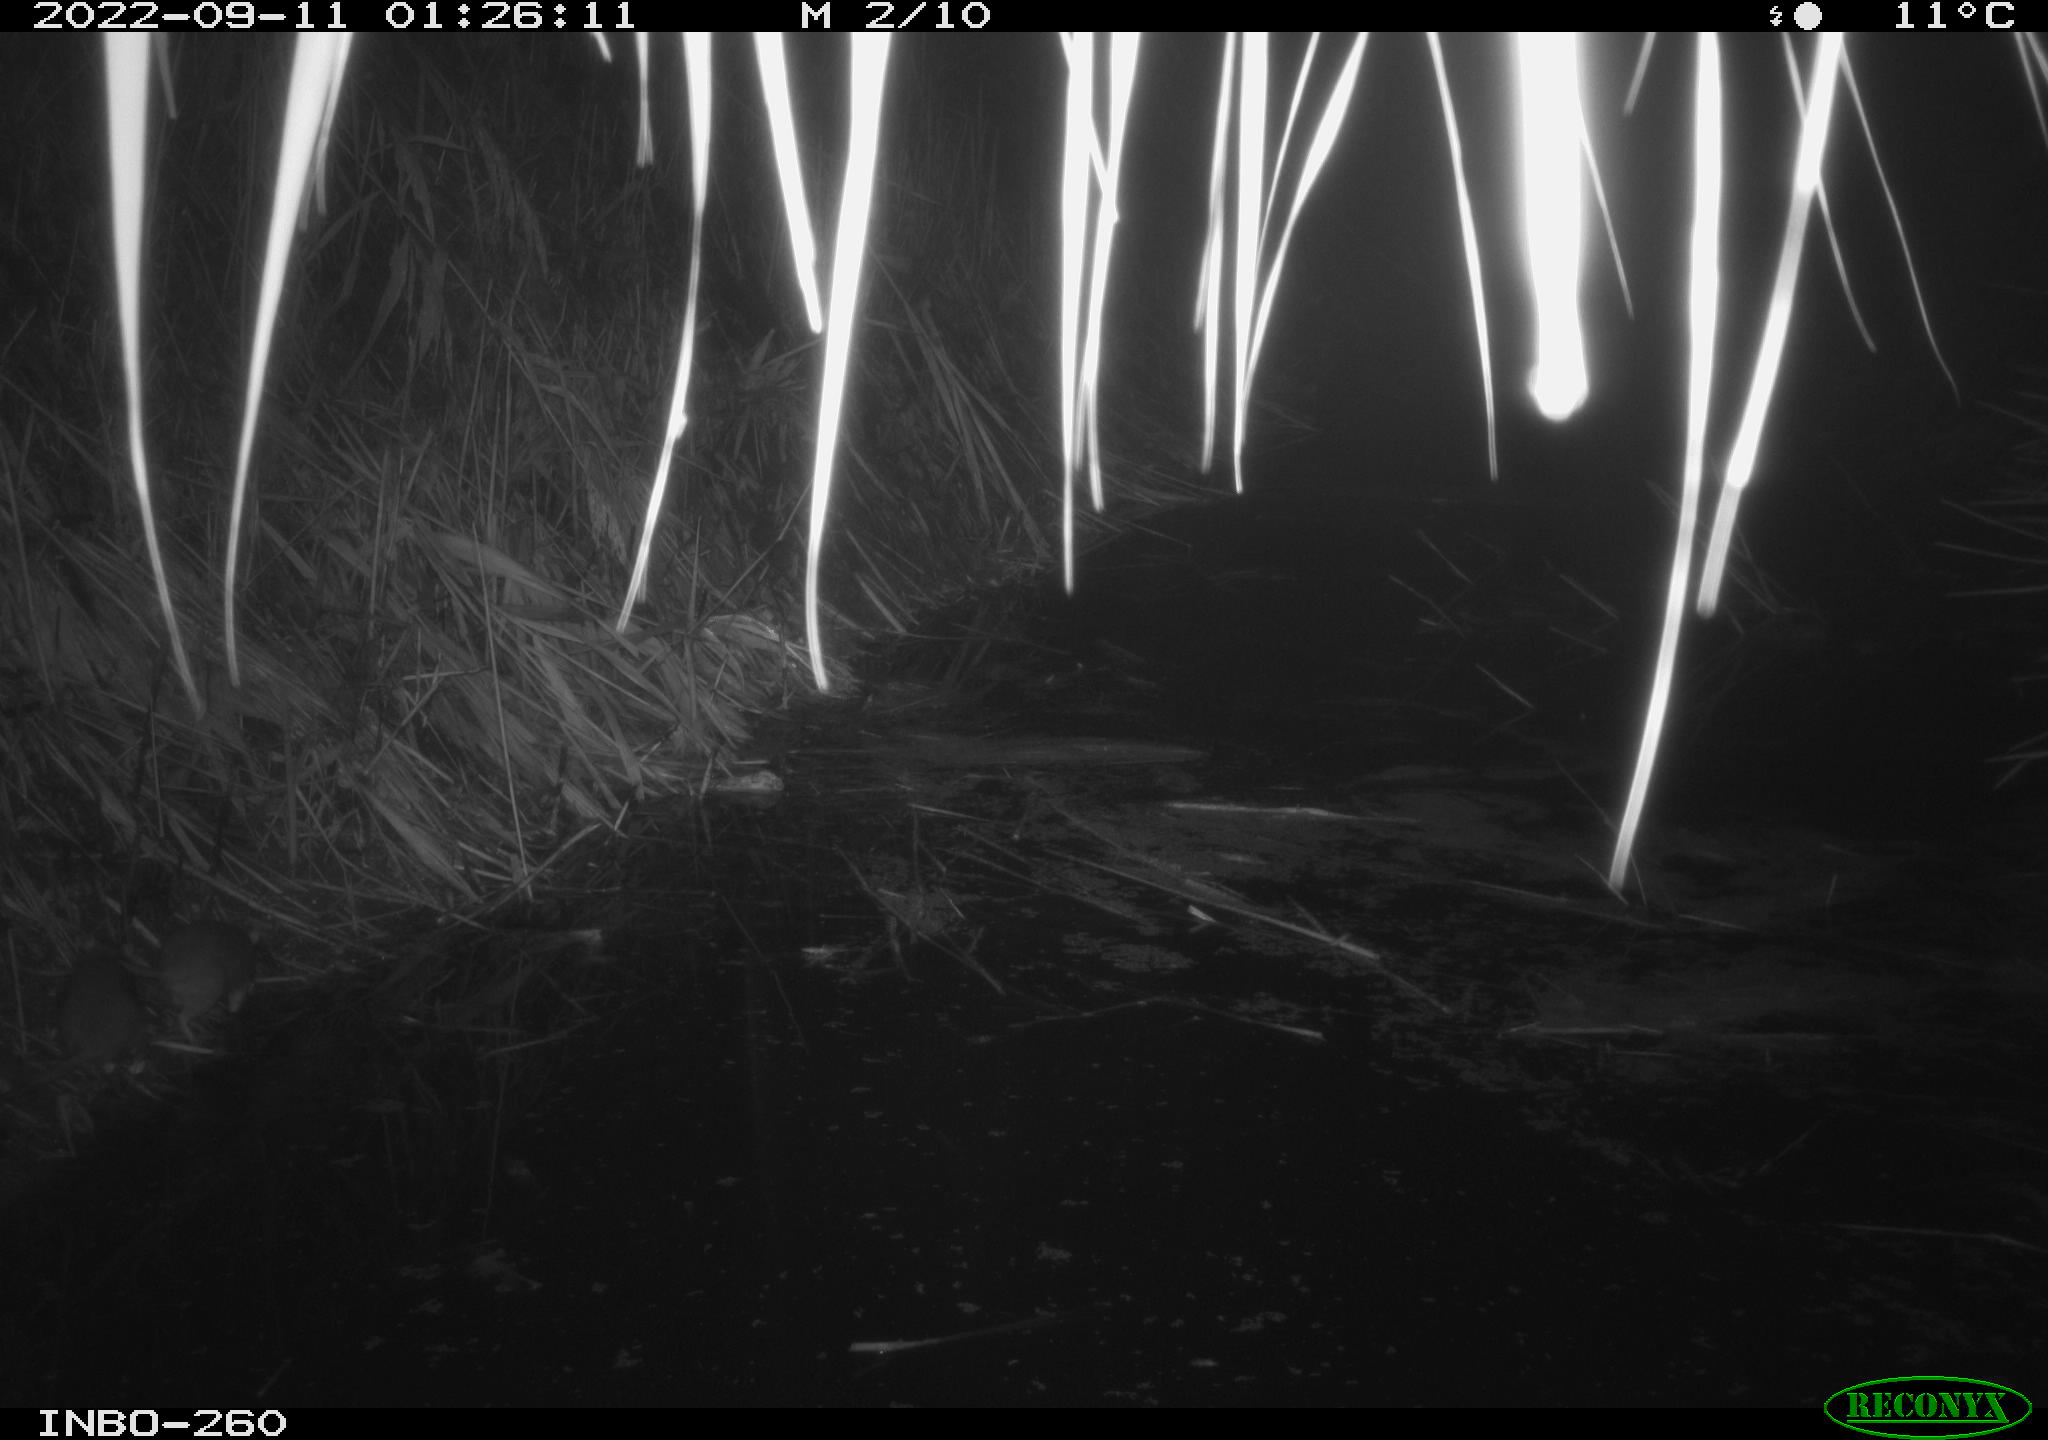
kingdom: Animalia
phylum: Chordata
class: Mammalia
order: Rodentia
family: Muridae
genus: Rattus
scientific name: Rattus norvegicus
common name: Brown rat
